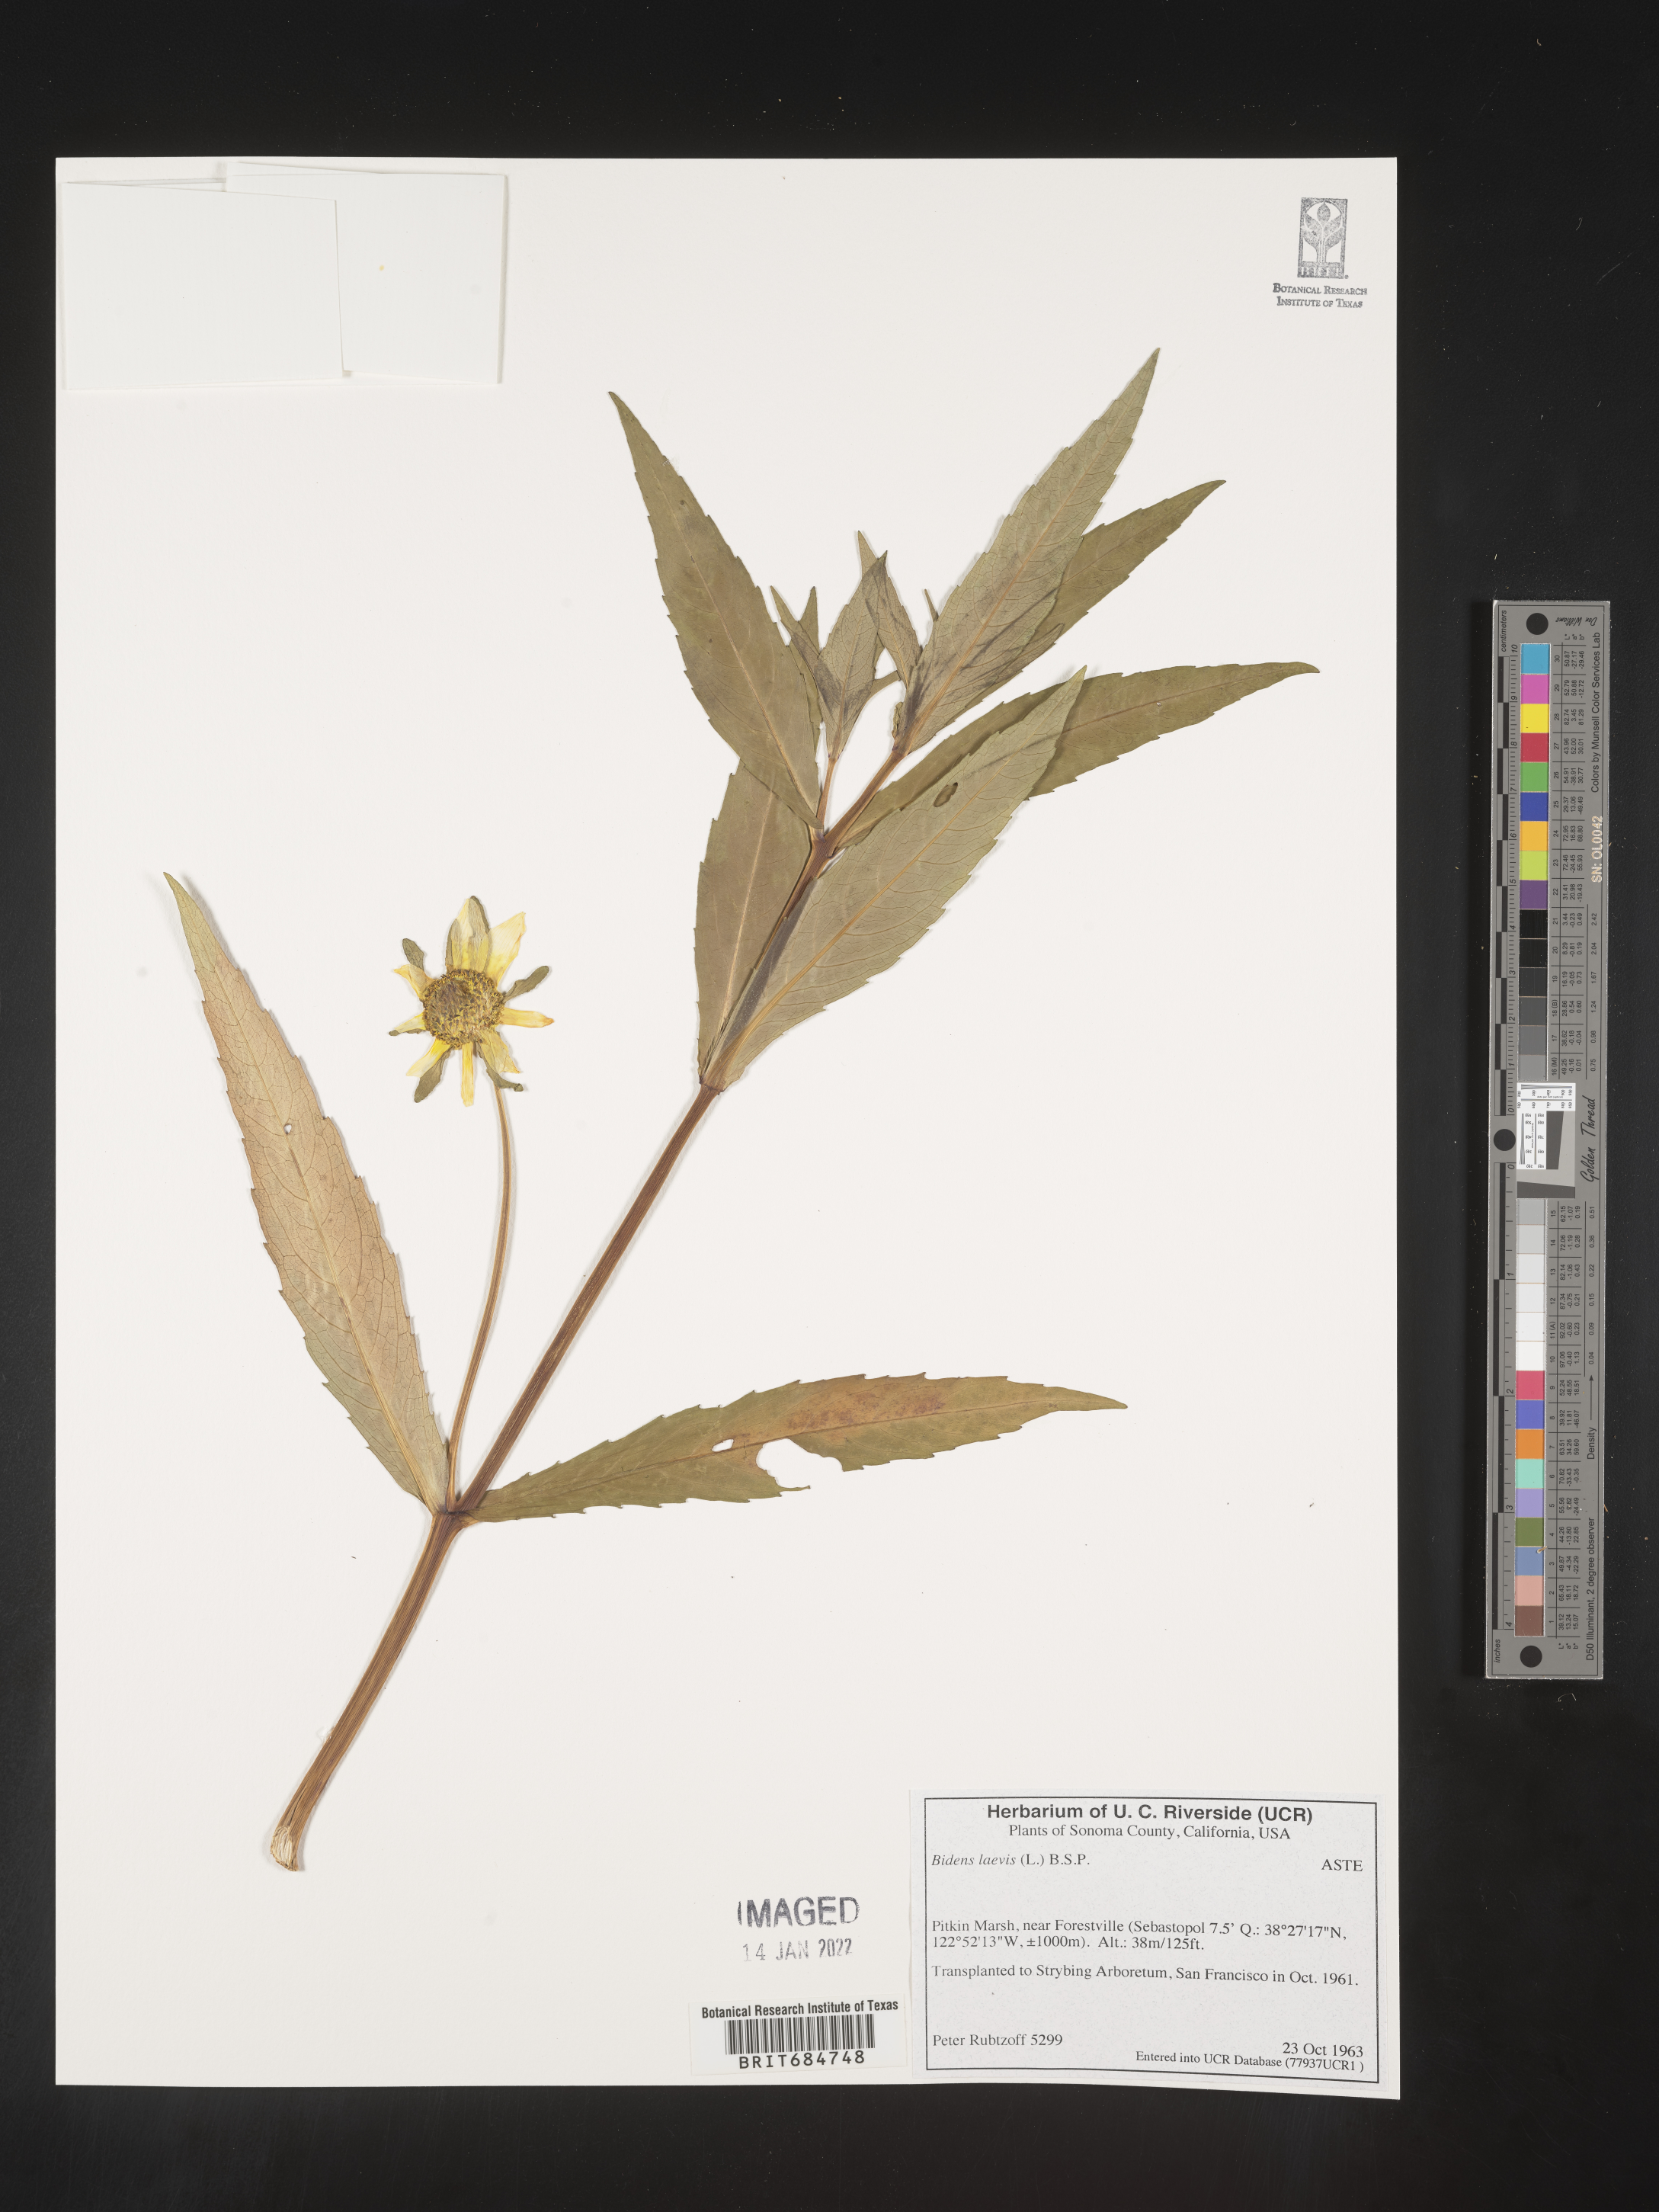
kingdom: Plantae
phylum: Tracheophyta
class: Magnoliopsida
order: Asterales
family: Asteraceae
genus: Bidens
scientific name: Bidens laevis
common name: Larger bur-marigold
